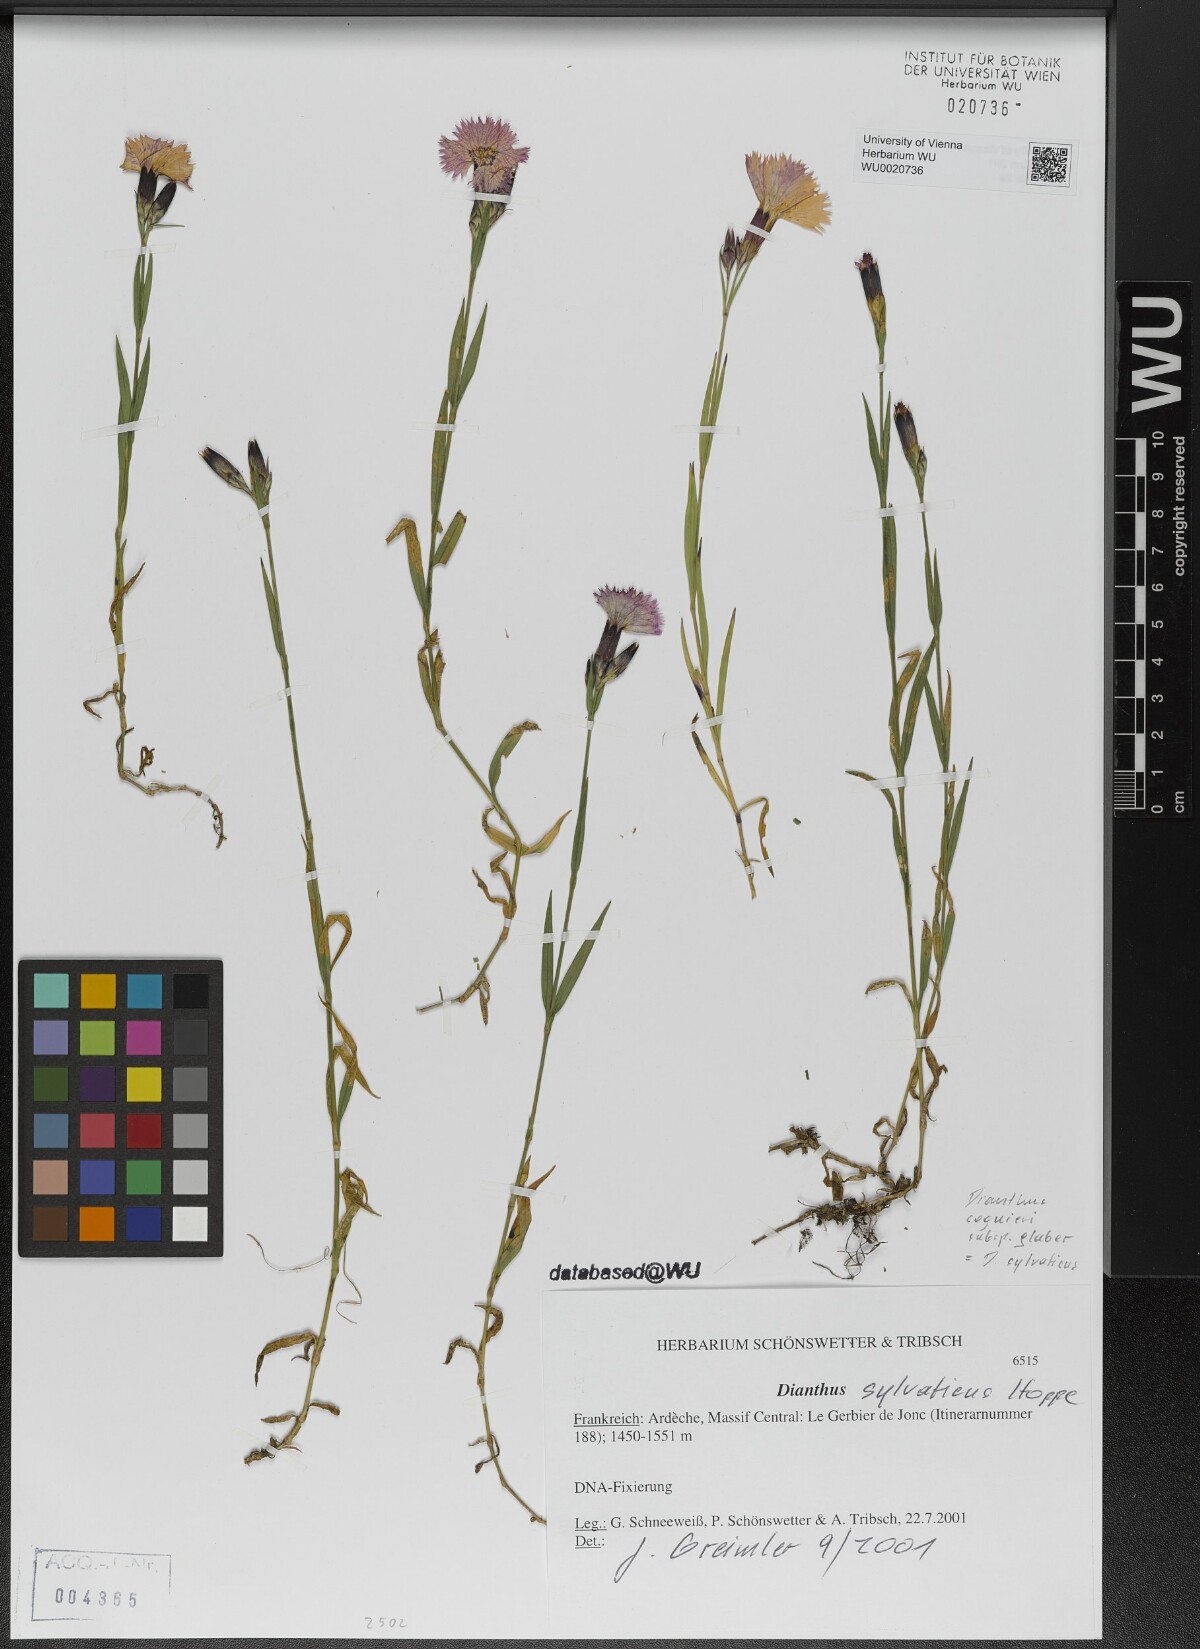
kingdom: Plantae
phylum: Tracheophyta
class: Magnoliopsida
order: Caryophyllales
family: Caryophyllaceae
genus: Dianthus
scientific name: Dianthus sylvaticus
